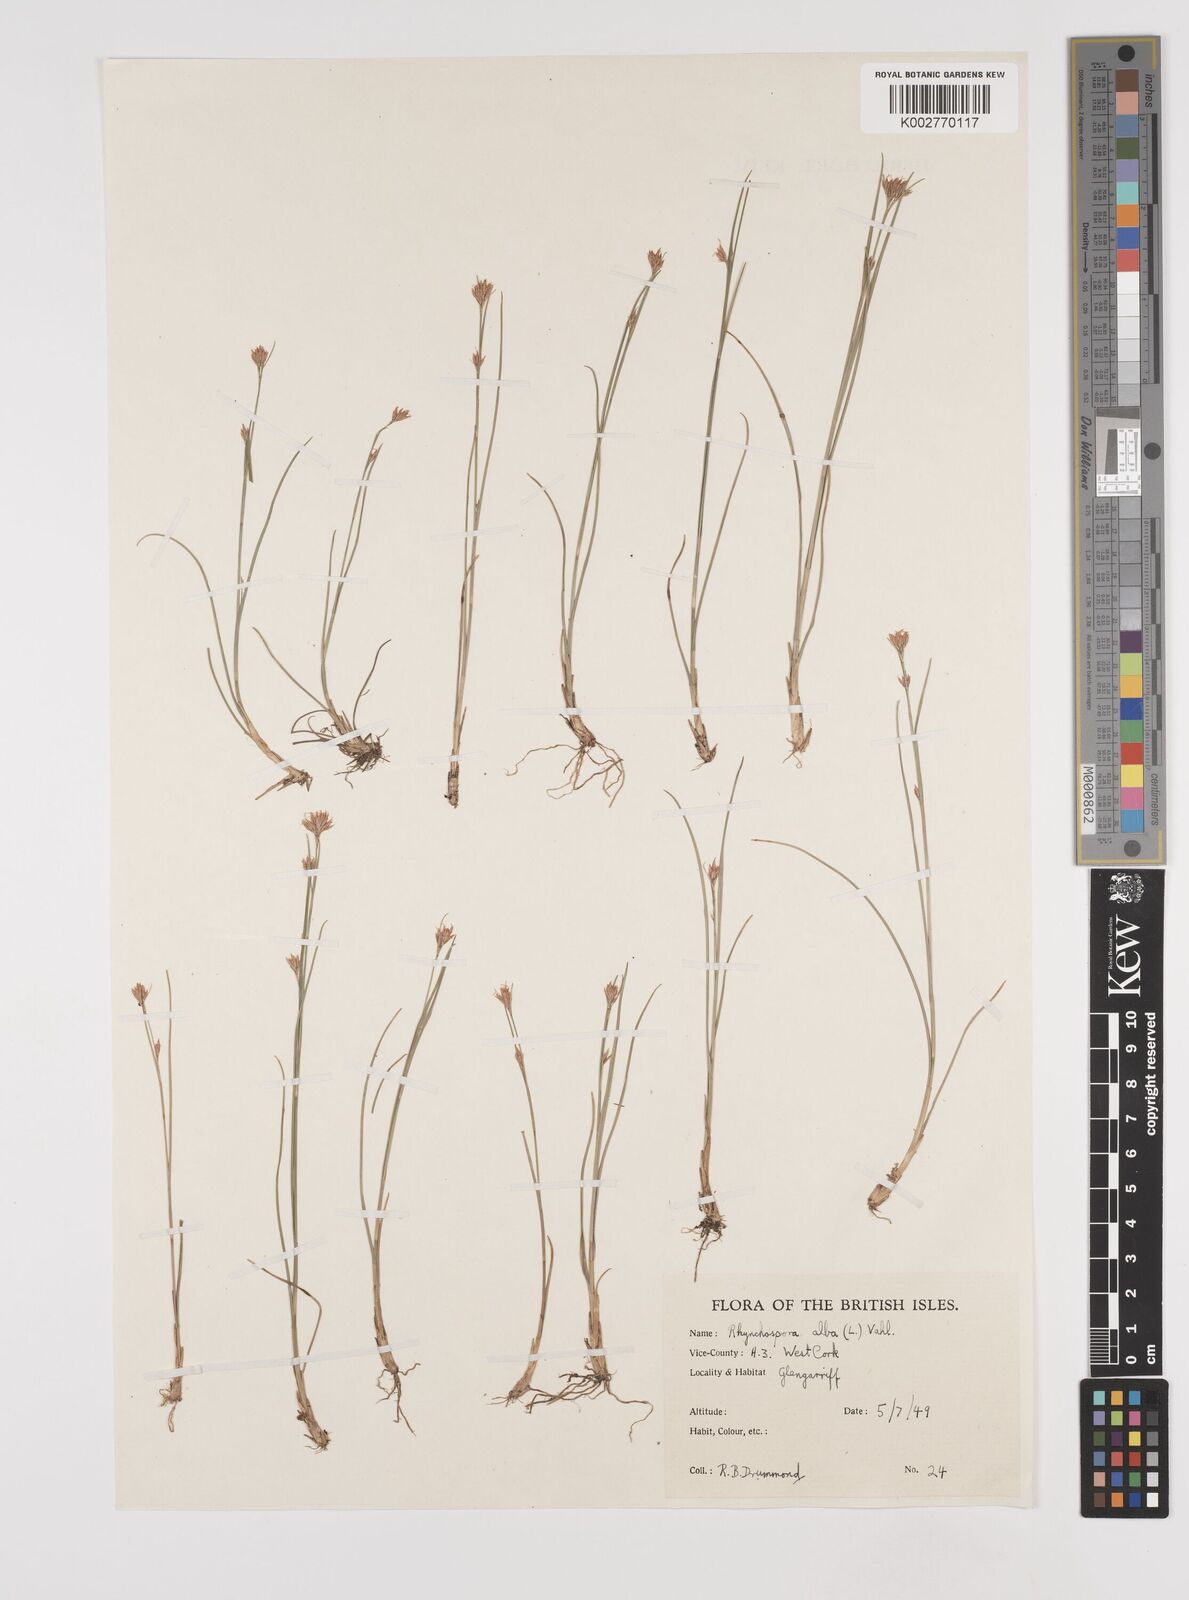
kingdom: Plantae
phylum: Tracheophyta
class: Liliopsida
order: Poales
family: Cyperaceae
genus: Rhynchospora
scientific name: Rhynchospora alba
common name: White beak-sedge
